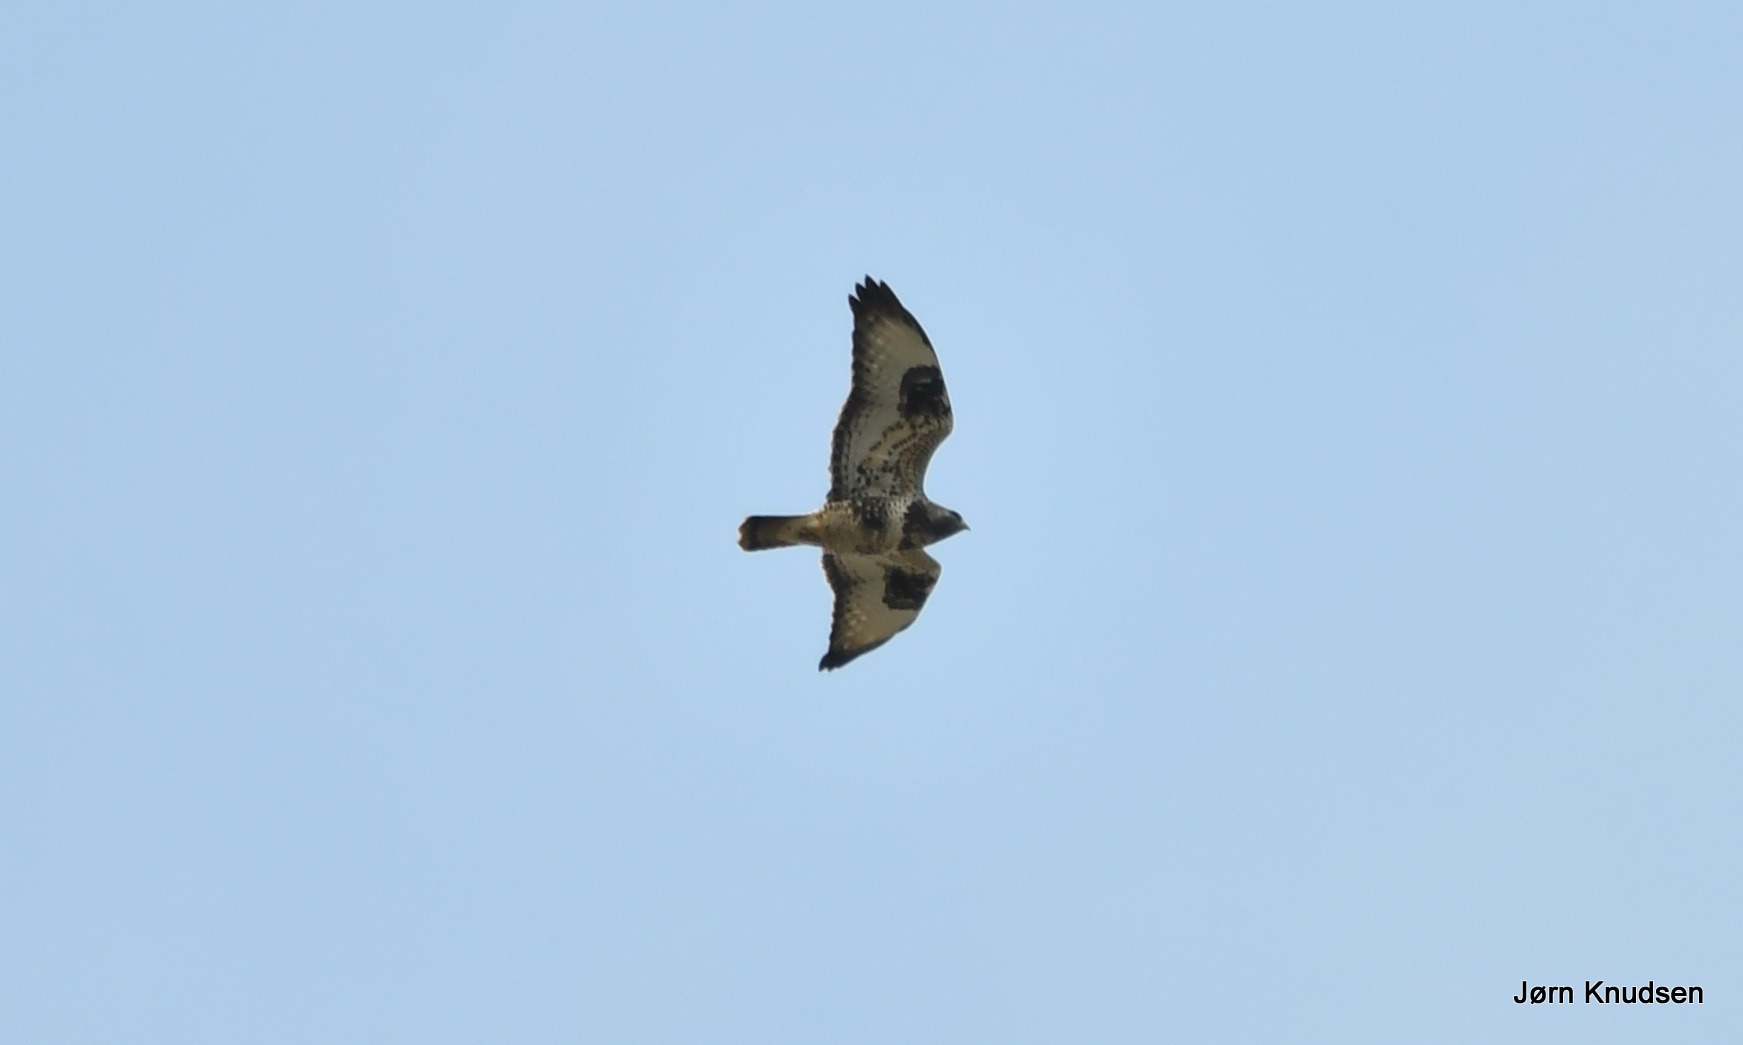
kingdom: Animalia
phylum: Chordata
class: Aves
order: Accipitriformes
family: Accipitridae
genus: Buteo
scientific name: Buteo lagopus
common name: Fjeldvåge
